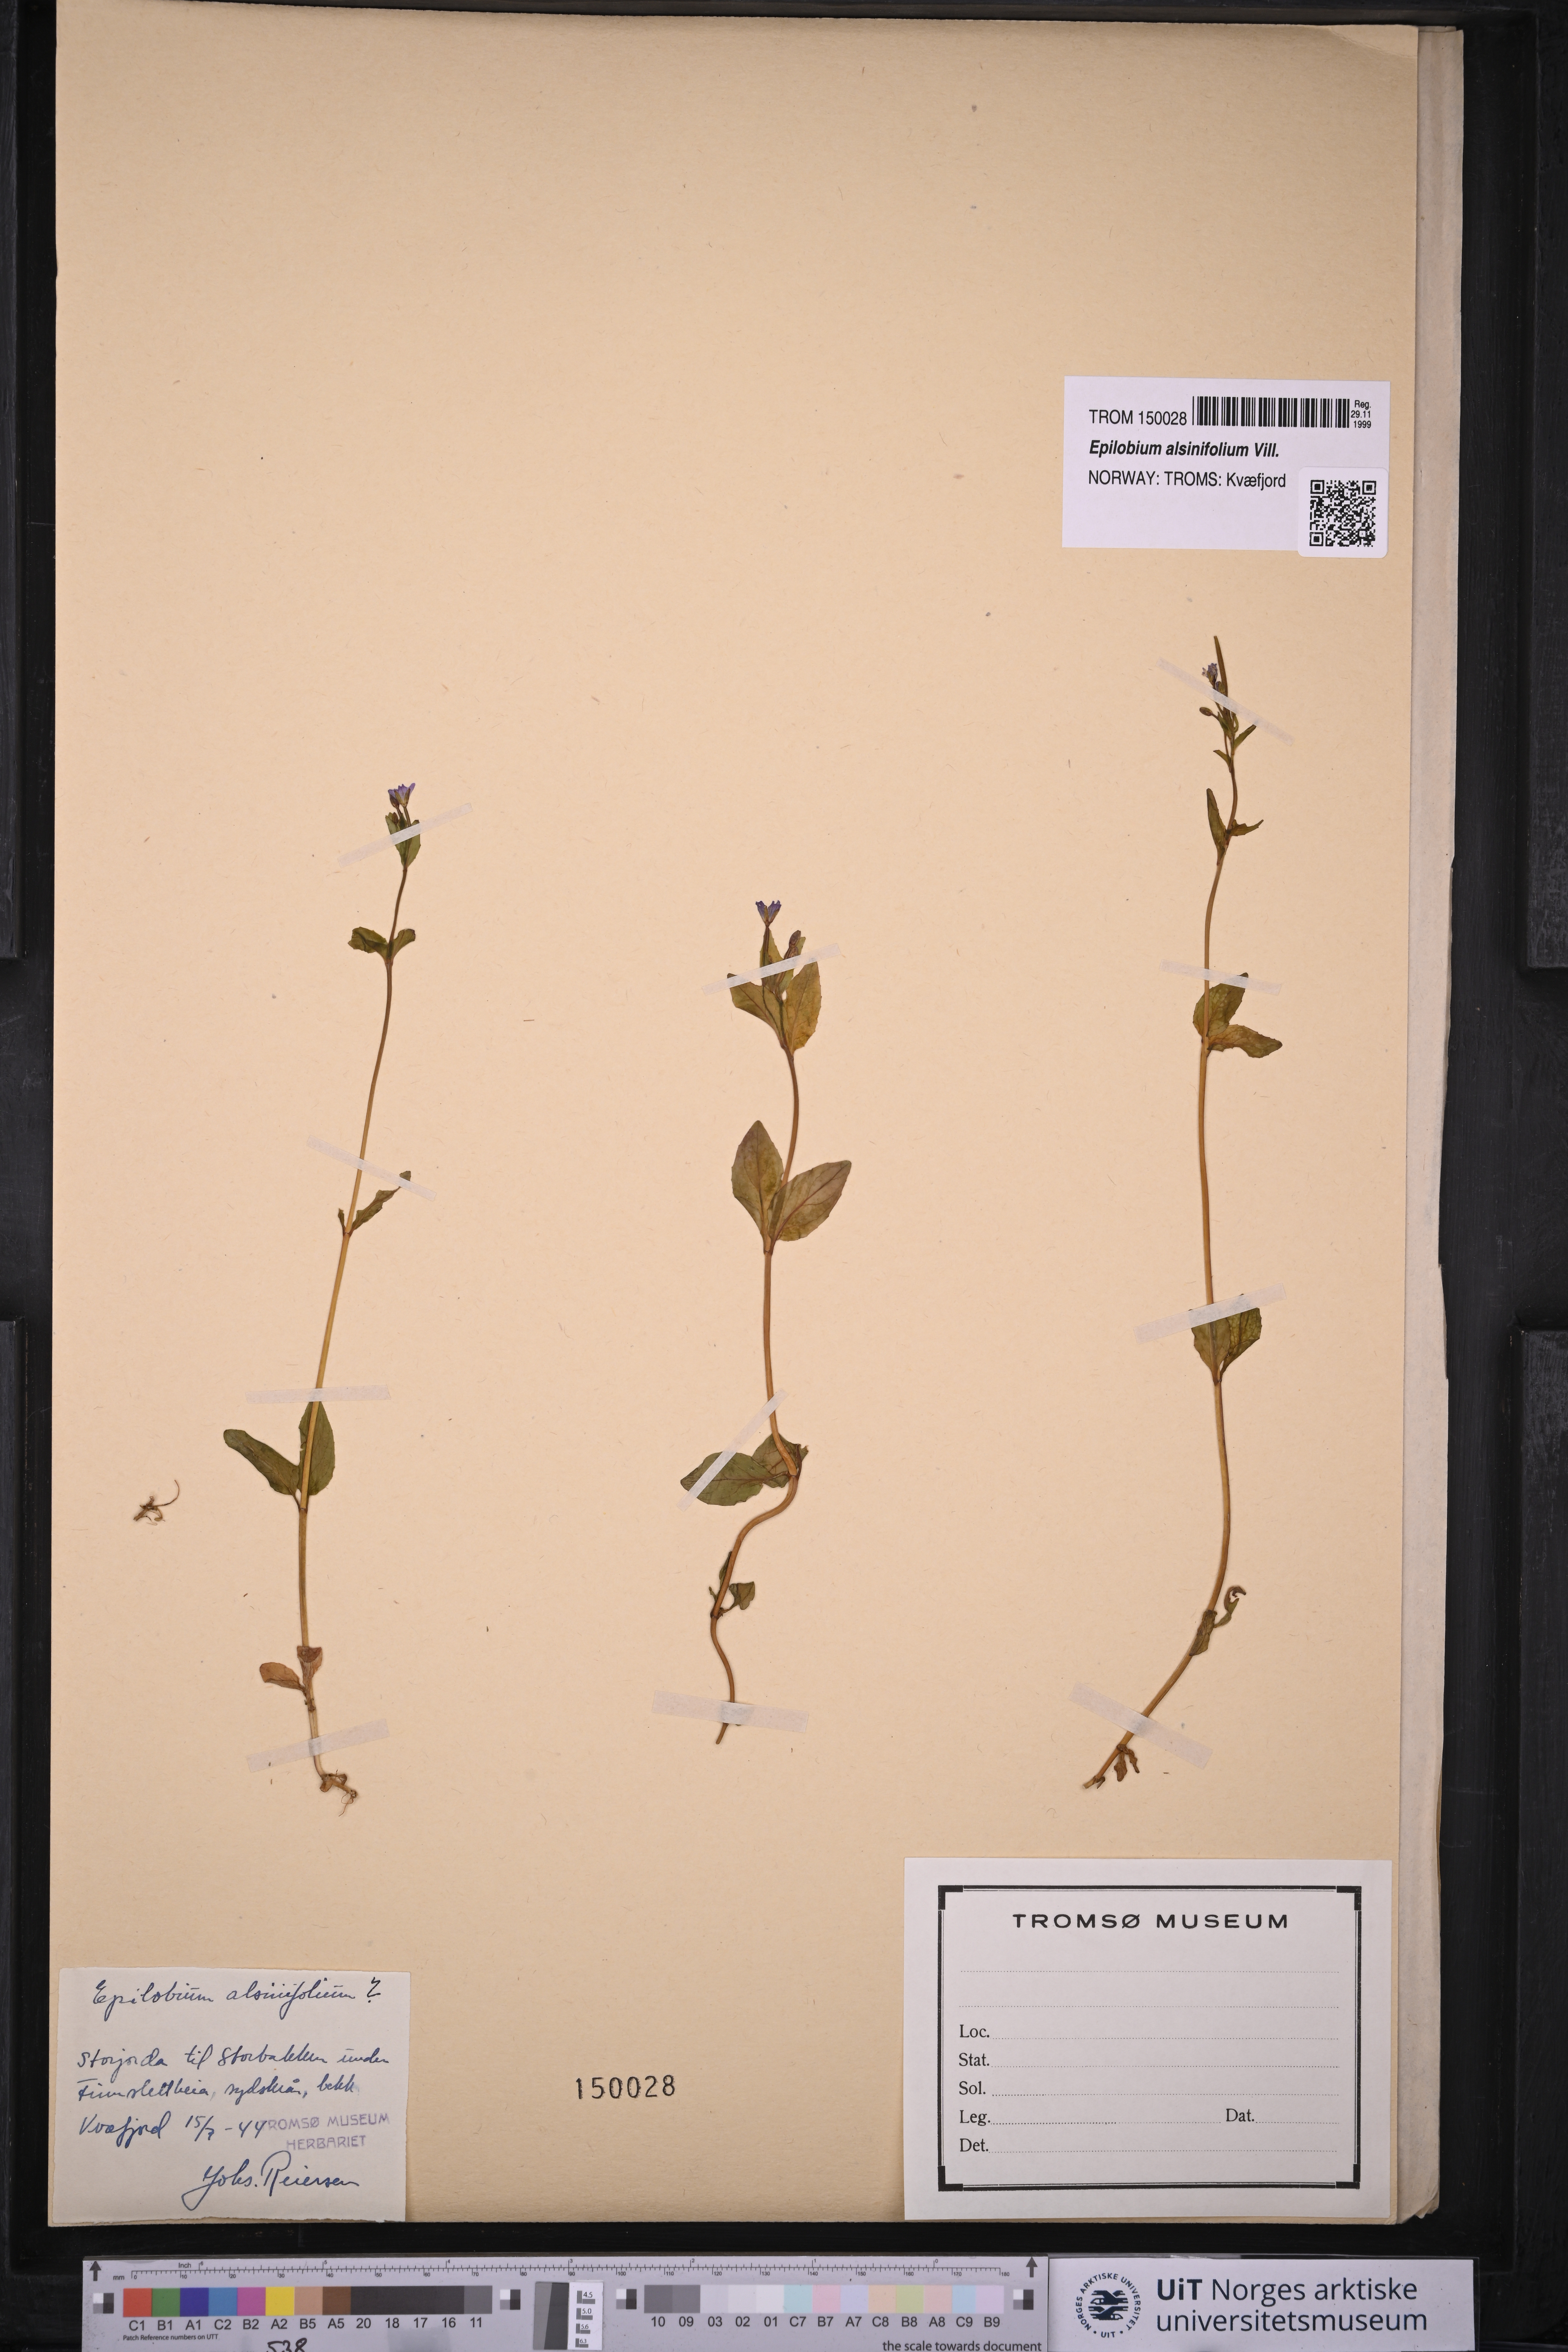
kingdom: Plantae
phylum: Tracheophyta
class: Magnoliopsida
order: Myrtales
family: Onagraceae
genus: Epilobium
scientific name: Epilobium alsinifolium
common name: Chickweed willowherb
